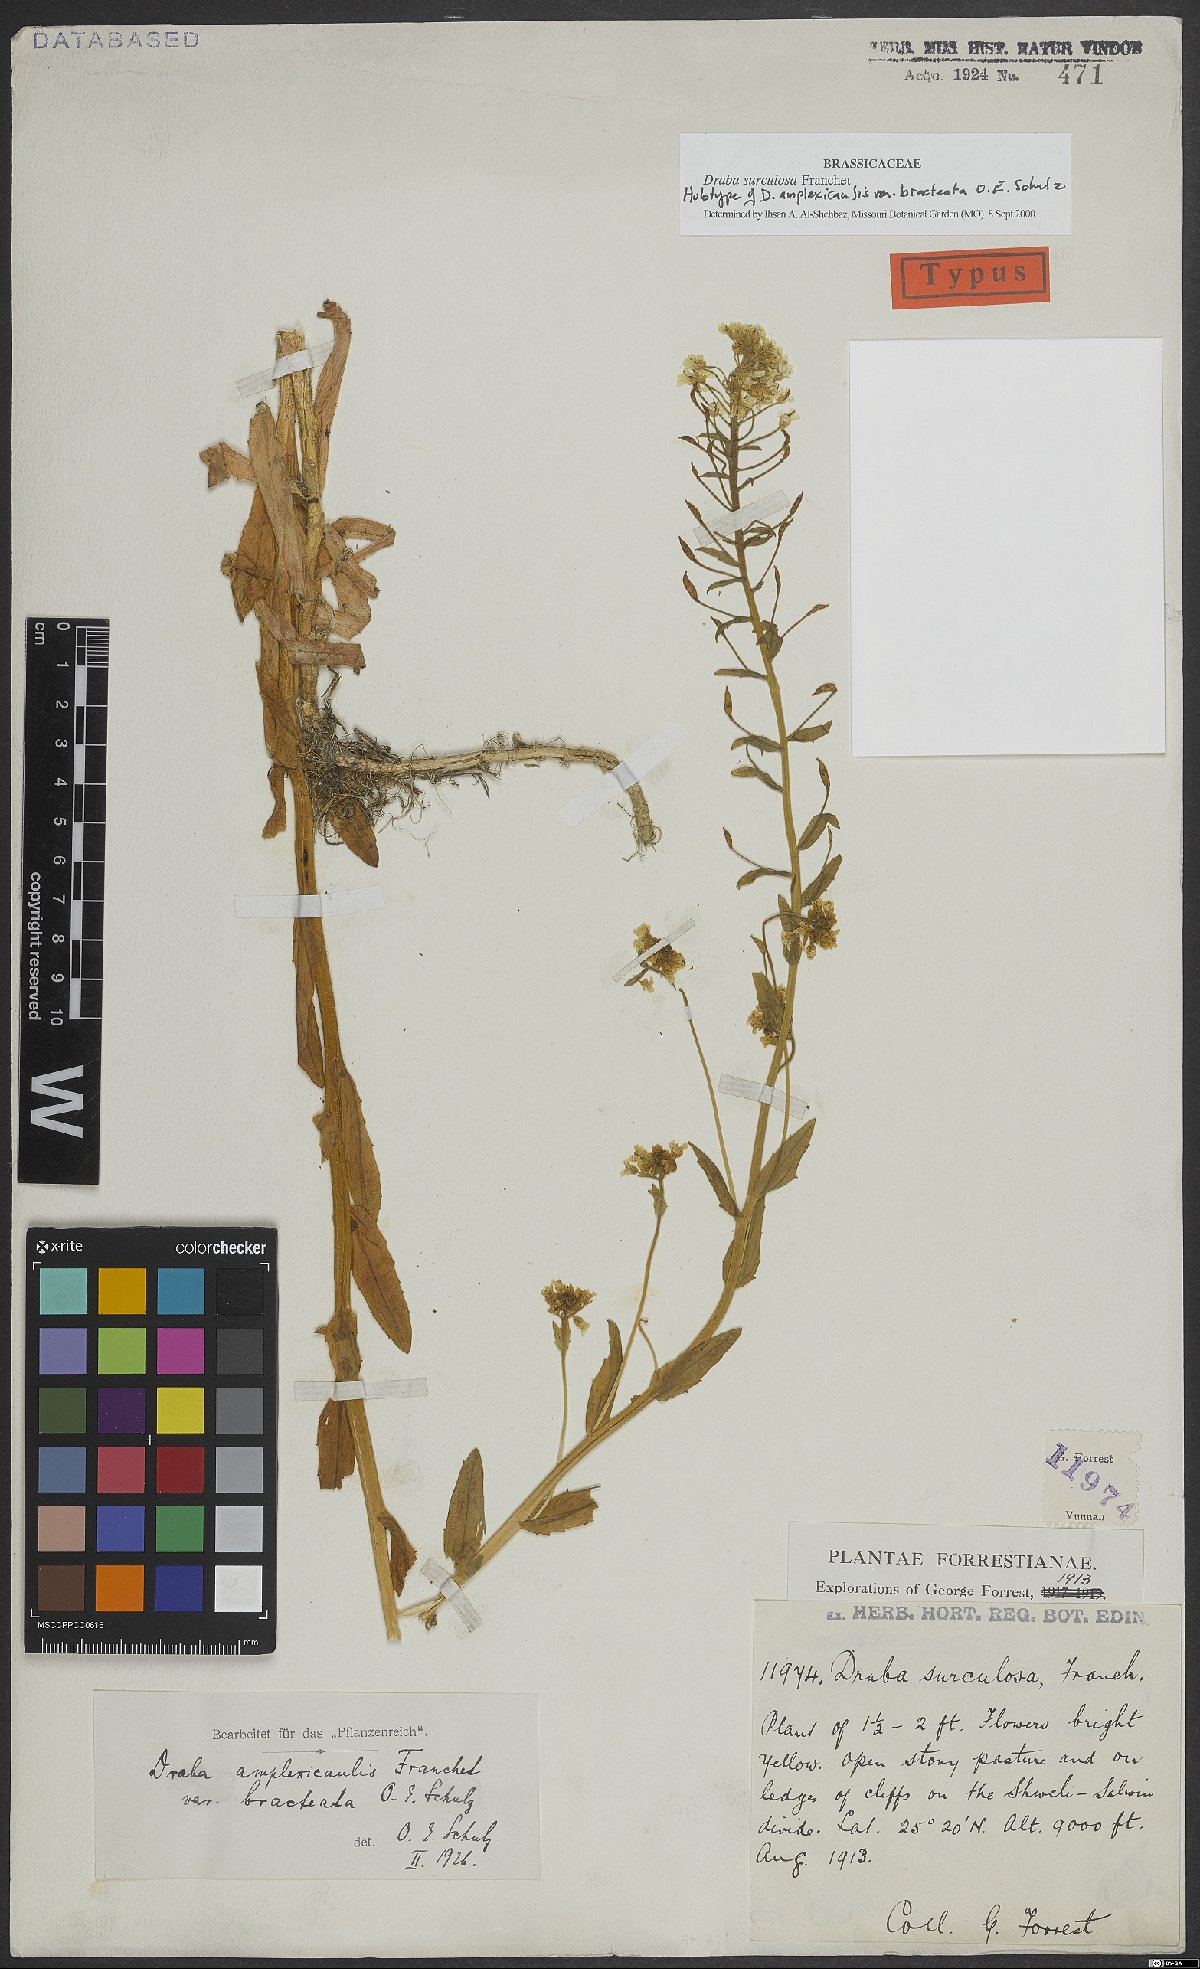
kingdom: Plantae
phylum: Tracheophyta
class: Magnoliopsida
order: Brassicales
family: Brassicaceae
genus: Draba
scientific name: Draba surculosa
